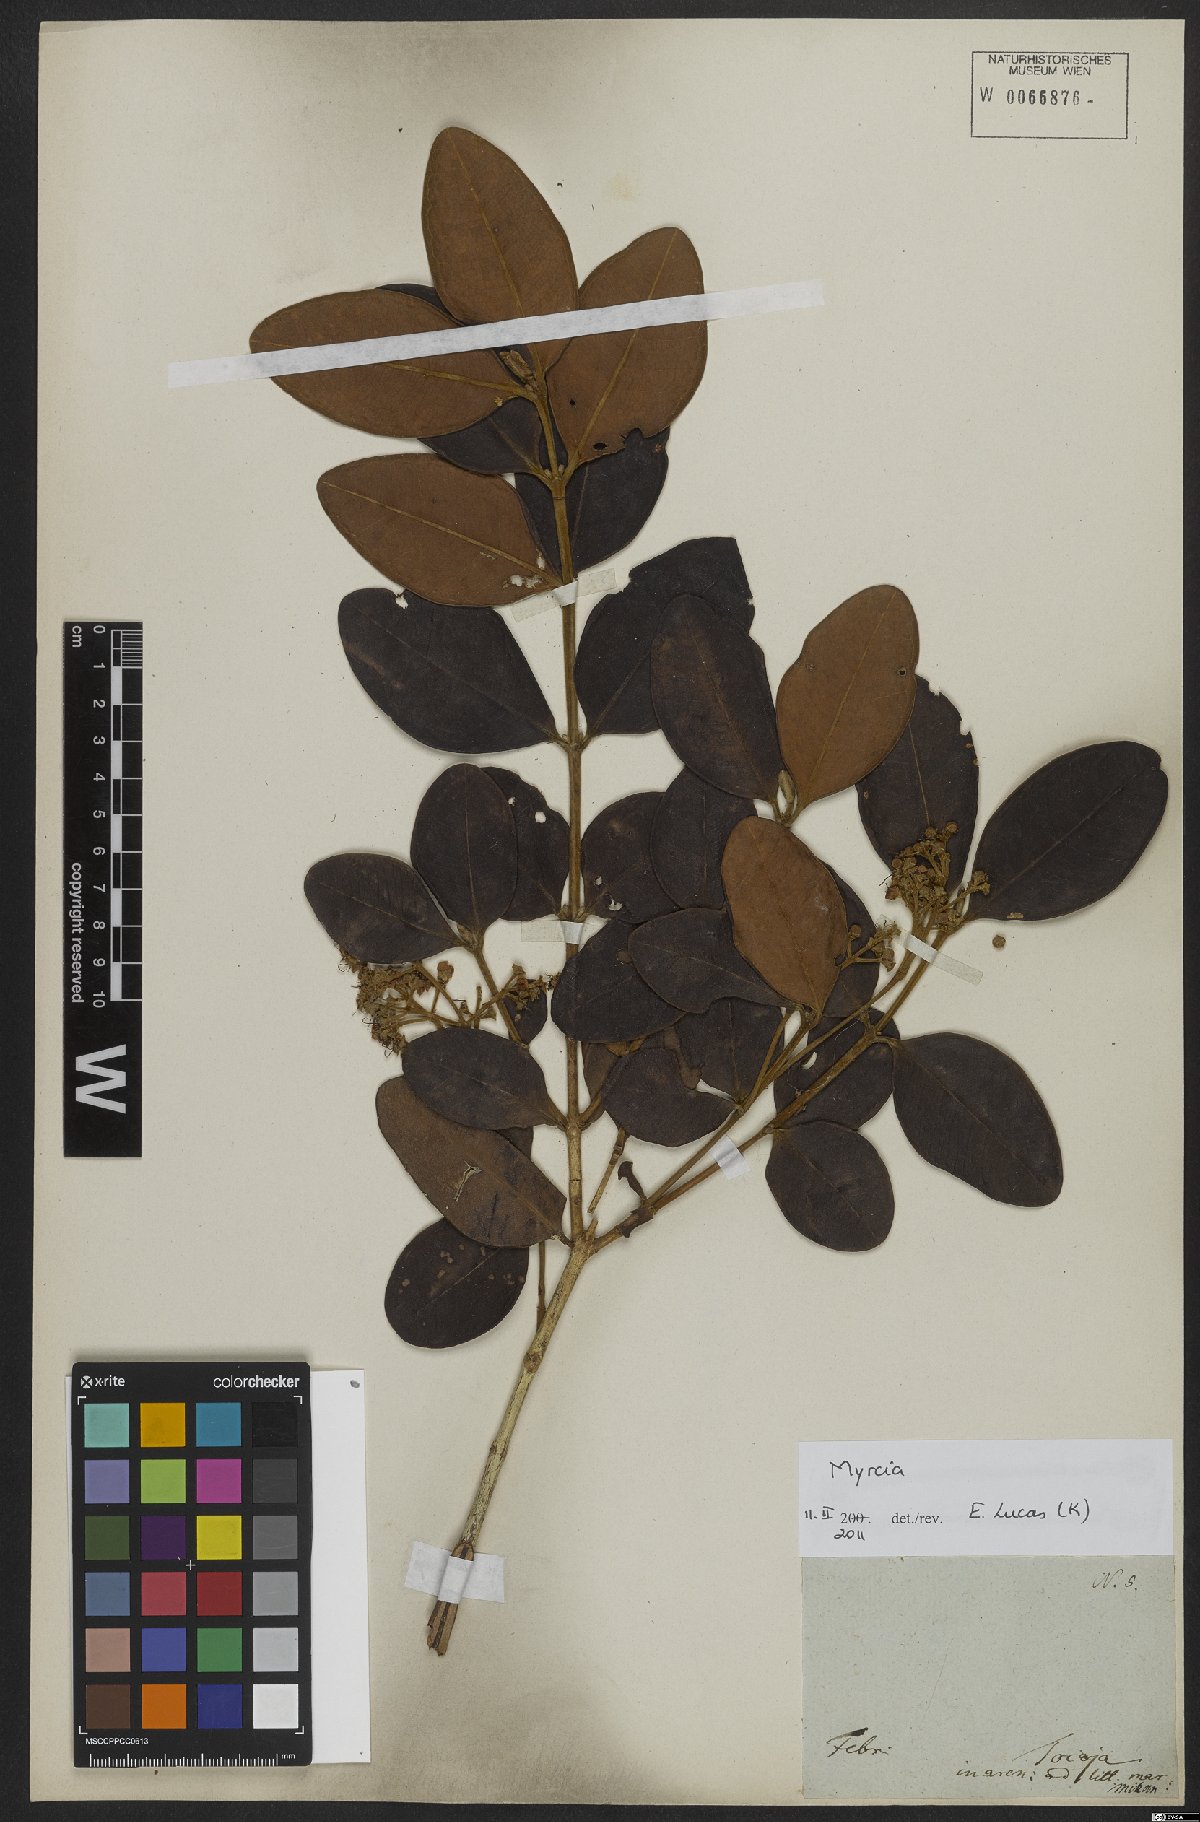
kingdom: Plantae
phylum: Tracheophyta
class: Magnoliopsida
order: Myrtales
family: Myrtaceae
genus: Myrcia
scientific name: Myrcia
